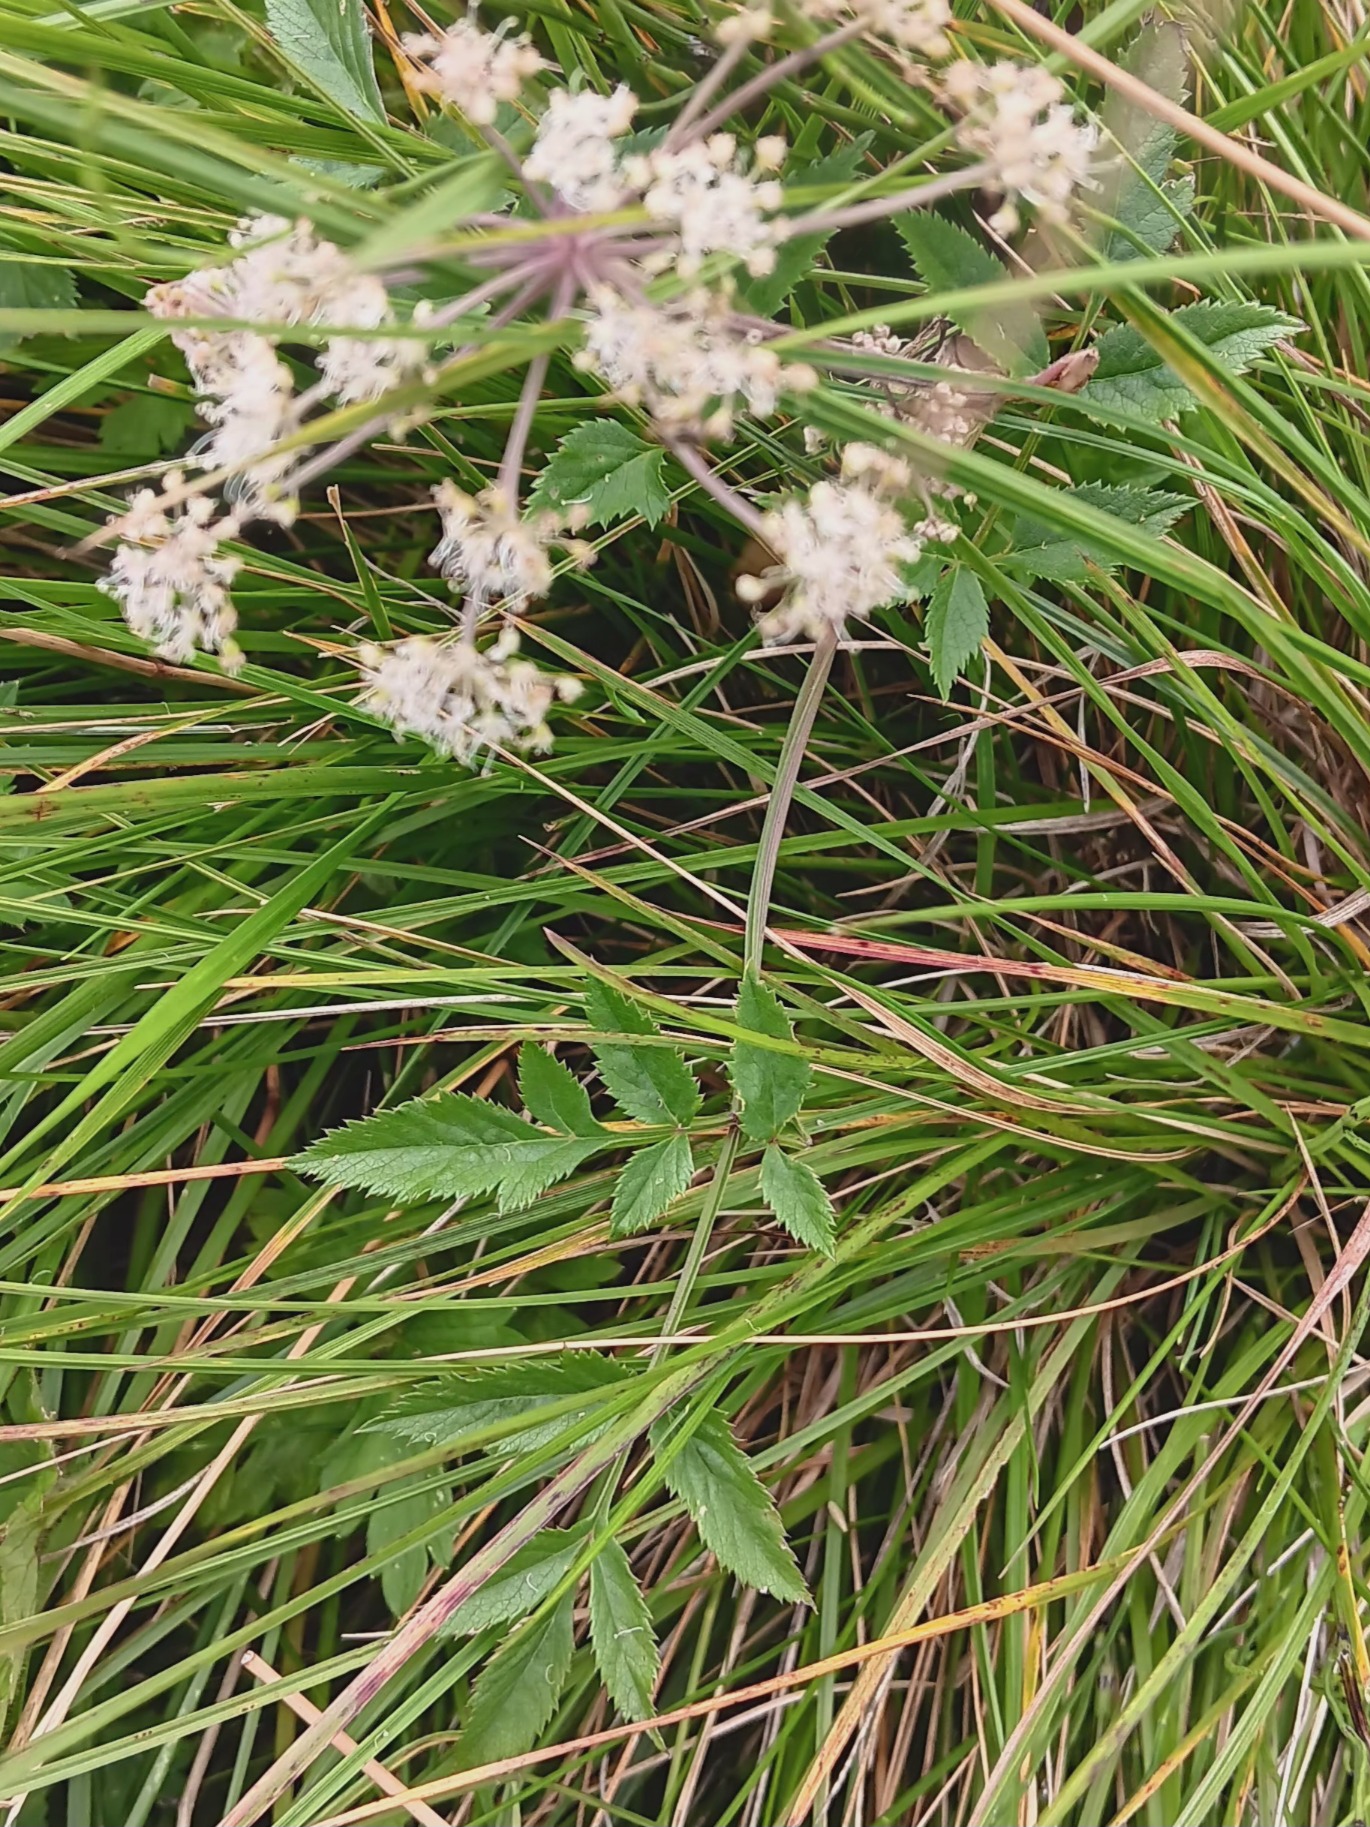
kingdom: Plantae
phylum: Tracheophyta
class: Magnoliopsida
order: Apiales
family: Apiaceae
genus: Angelica
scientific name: Angelica sylvestris
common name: Angelik
